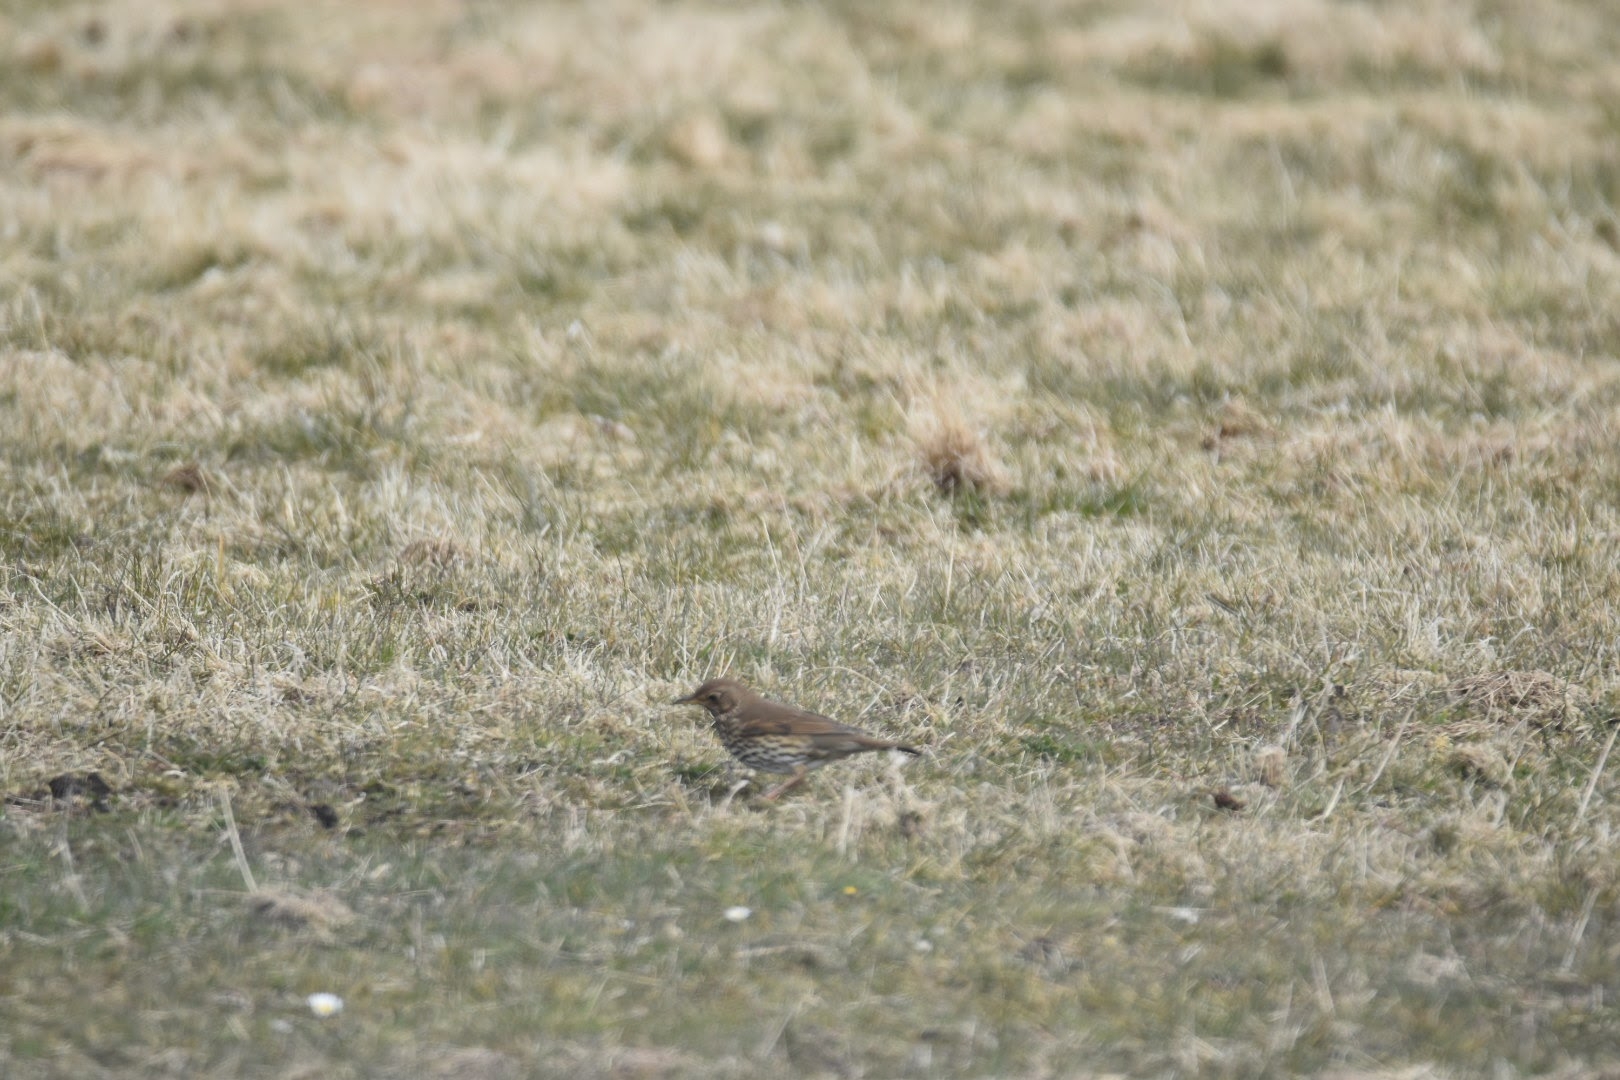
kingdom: Animalia
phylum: Chordata
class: Aves
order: Passeriformes
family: Turdidae
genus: Turdus
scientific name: Turdus philomelos
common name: Sangdrossel
